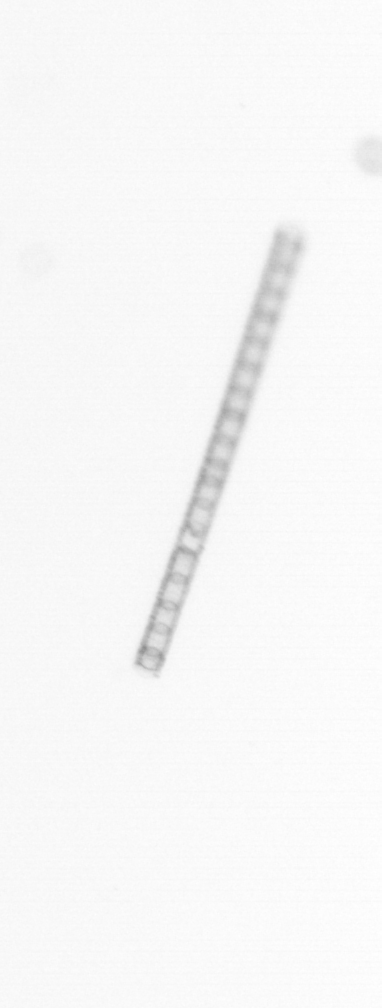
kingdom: Chromista
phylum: Ochrophyta
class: Bacillariophyceae
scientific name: Bacillariophyceae
